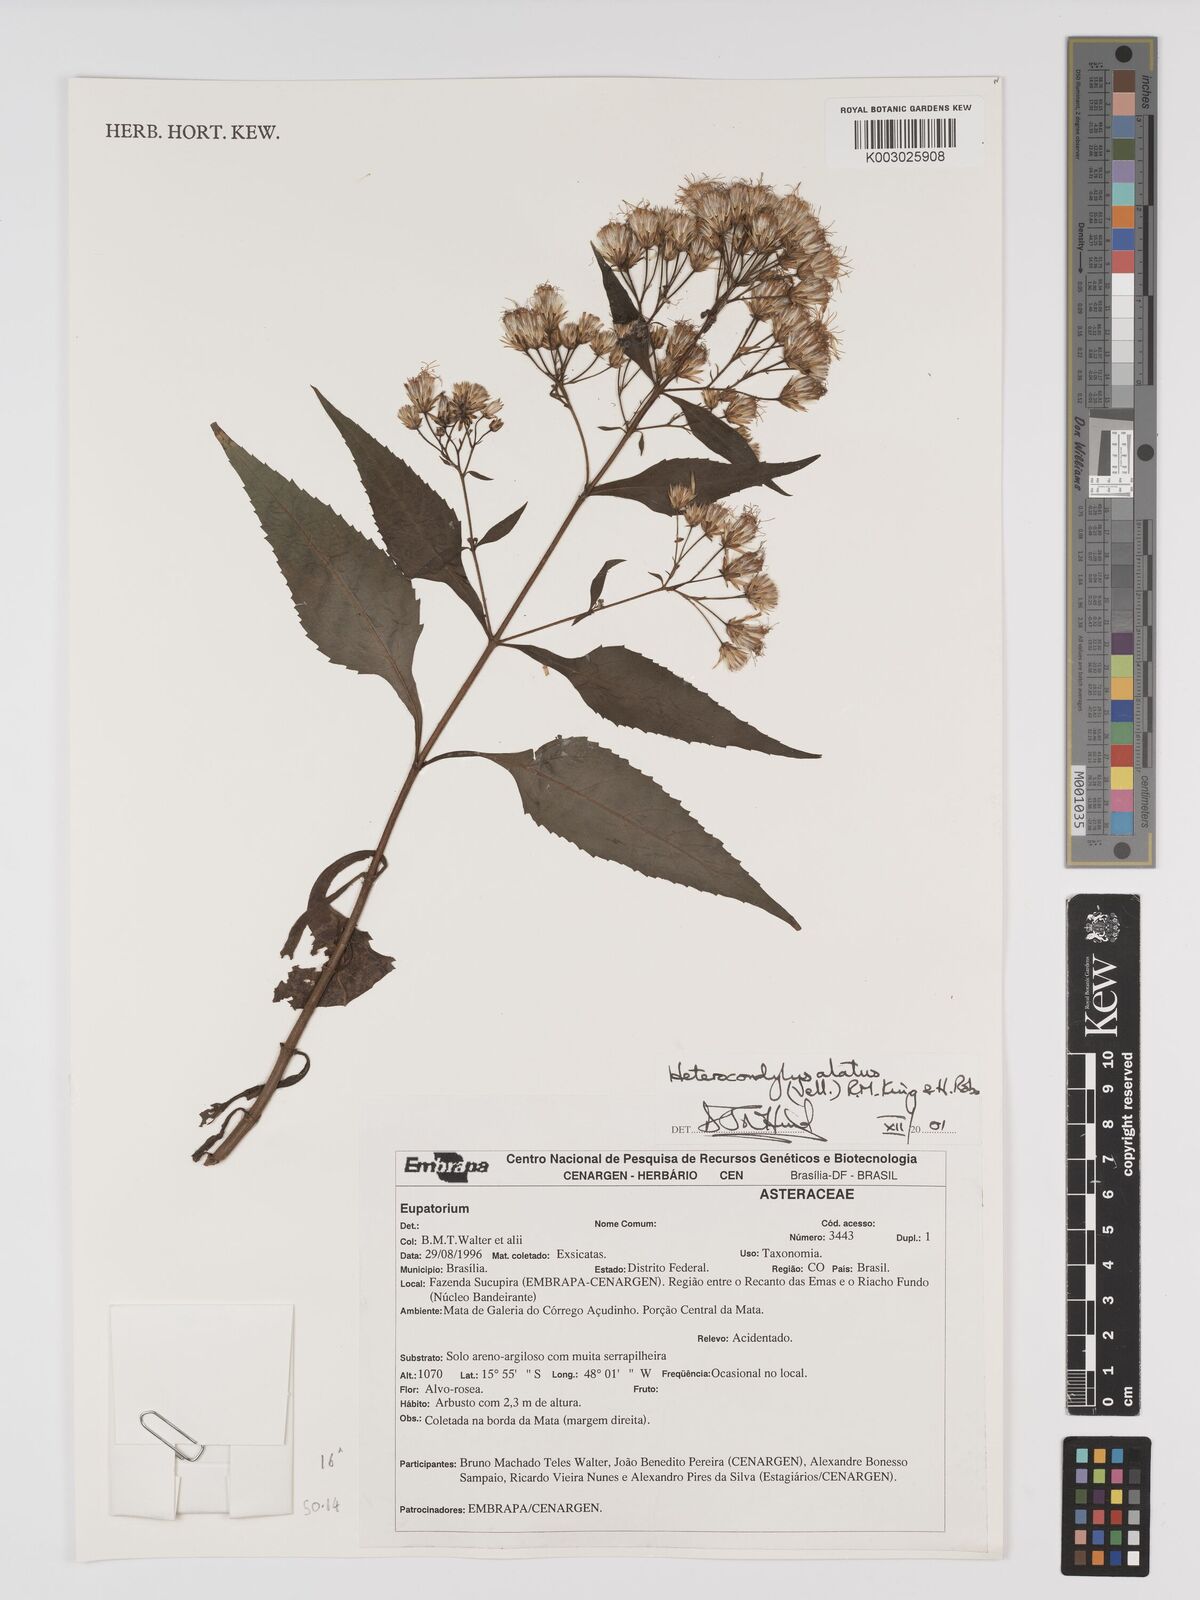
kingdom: Plantae
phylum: Tracheophyta
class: Magnoliopsida
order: Asterales
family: Asteraceae
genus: Heterocondylus
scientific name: Heterocondylus alatus
